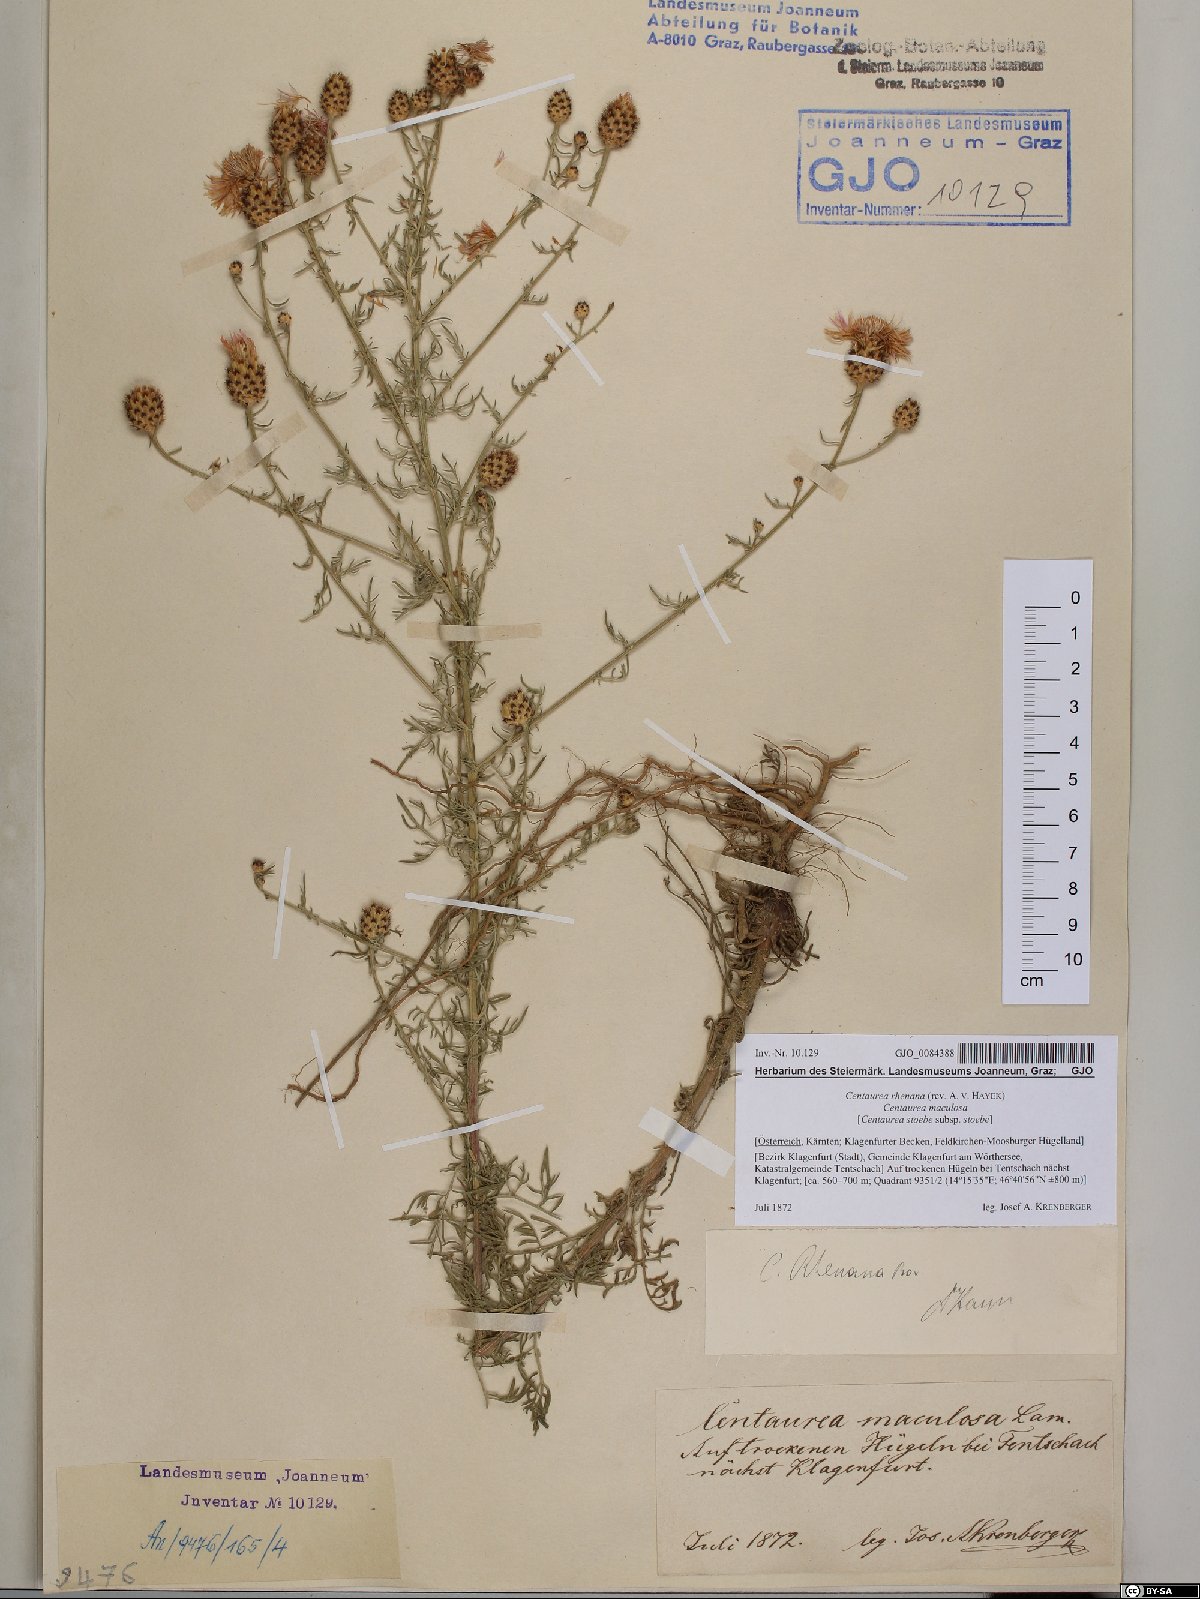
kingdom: Plantae
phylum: Tracheophyta
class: Magnoliopsida
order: Asterales
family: Asteraceae
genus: Centaurea
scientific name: Centaurea stoebe
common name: Spotted knapweed
